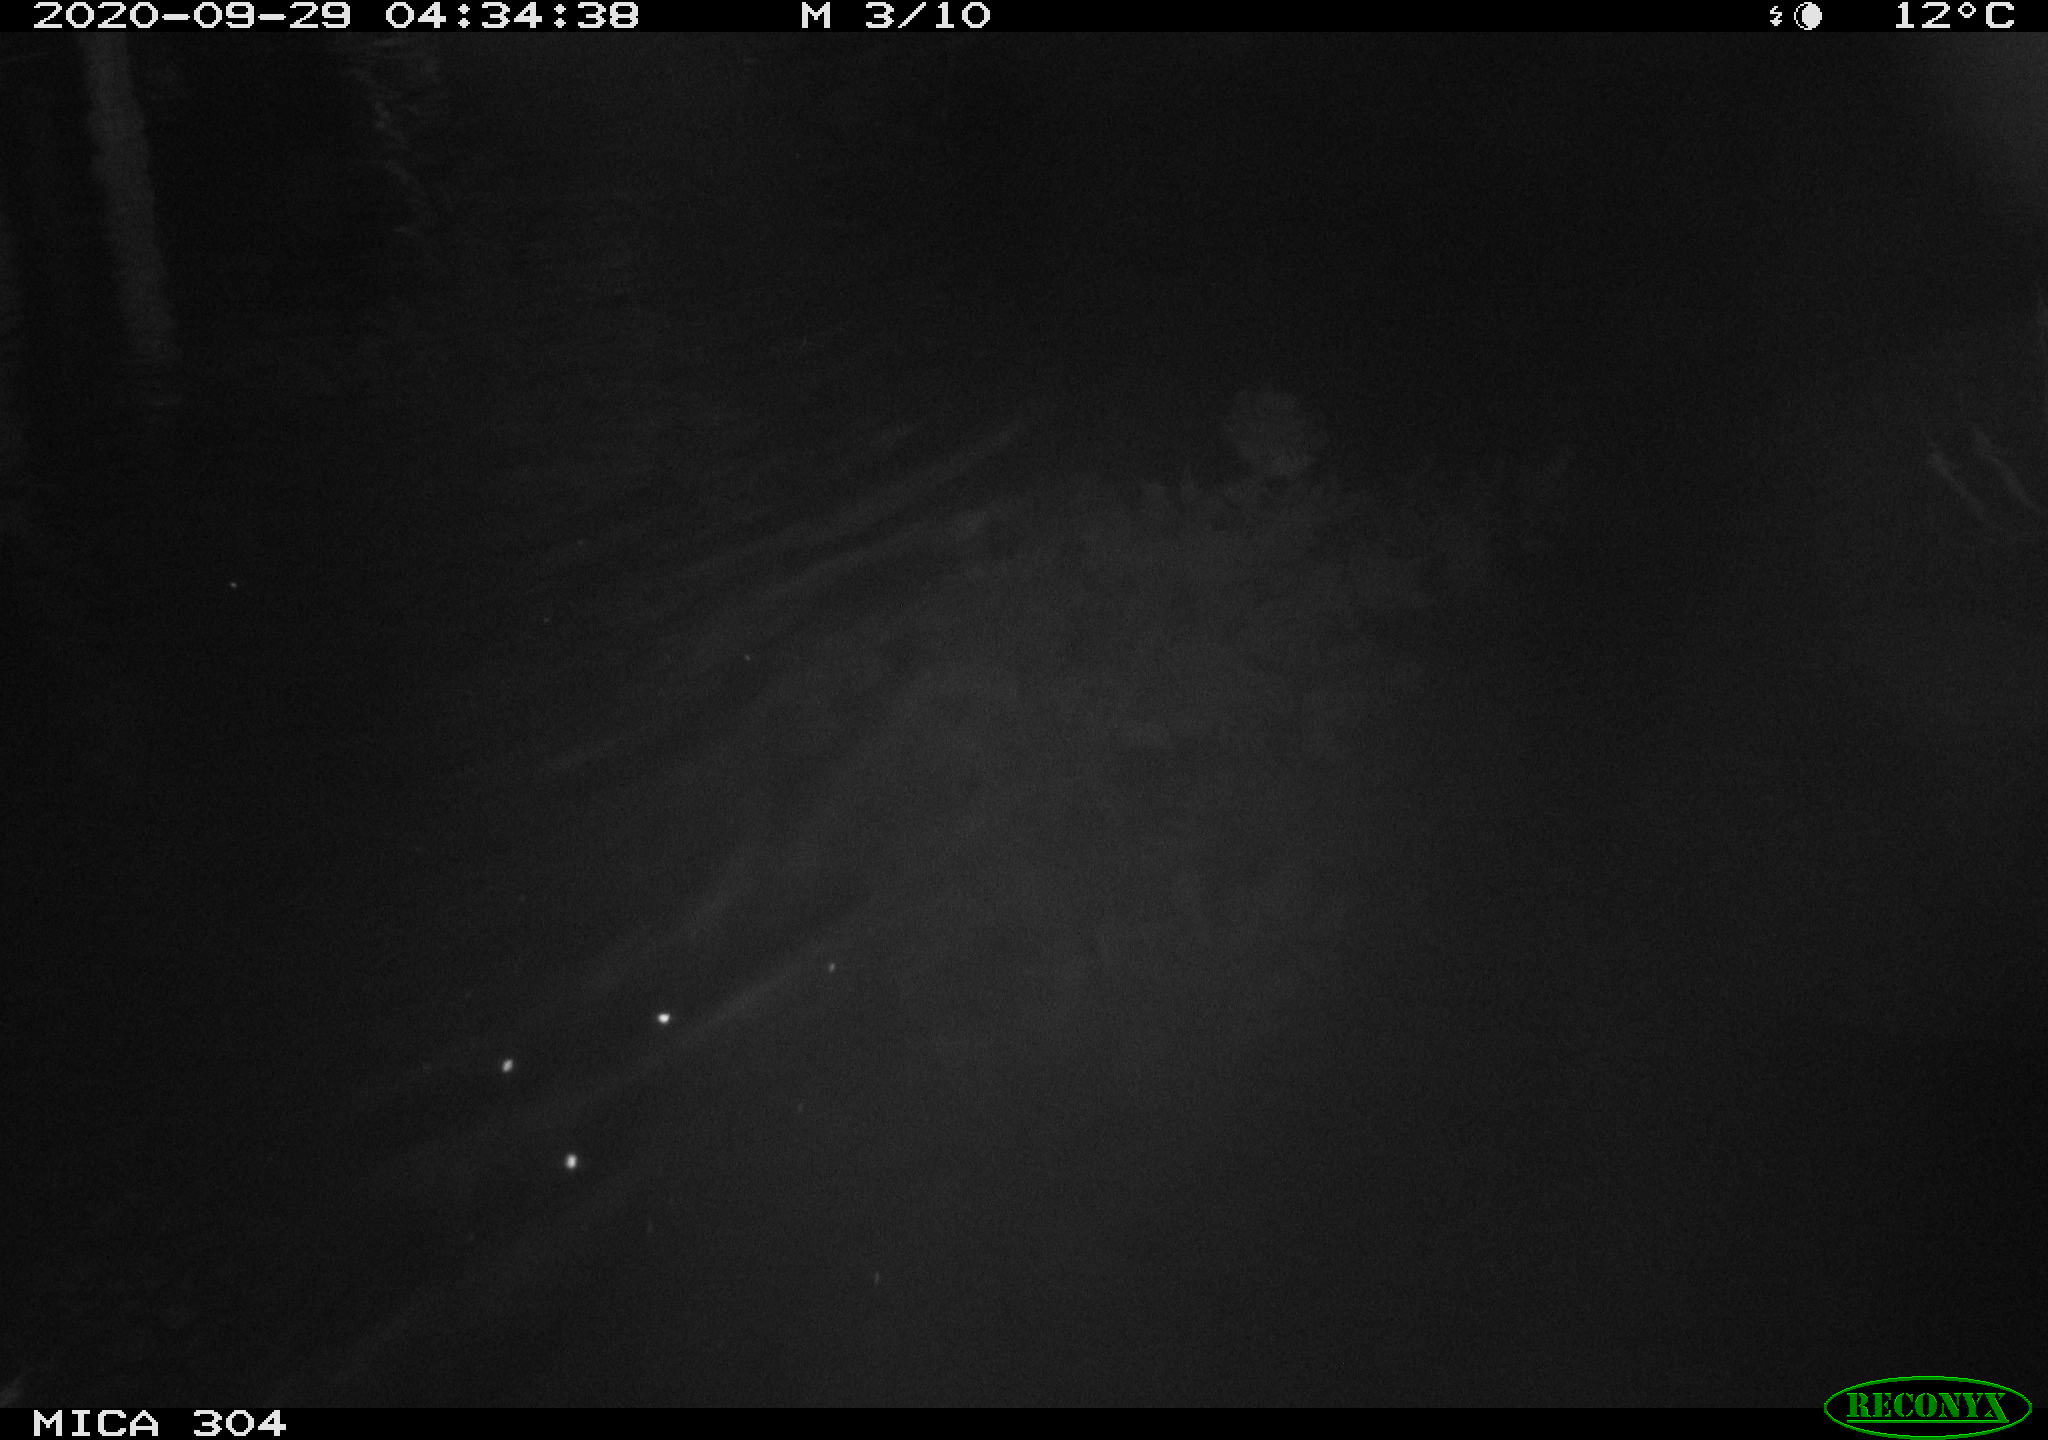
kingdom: Animalia
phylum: Chordata
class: Mammalia
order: Rodentia
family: Muridae
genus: Rattus
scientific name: Rattus norvegicus
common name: Brown rat
